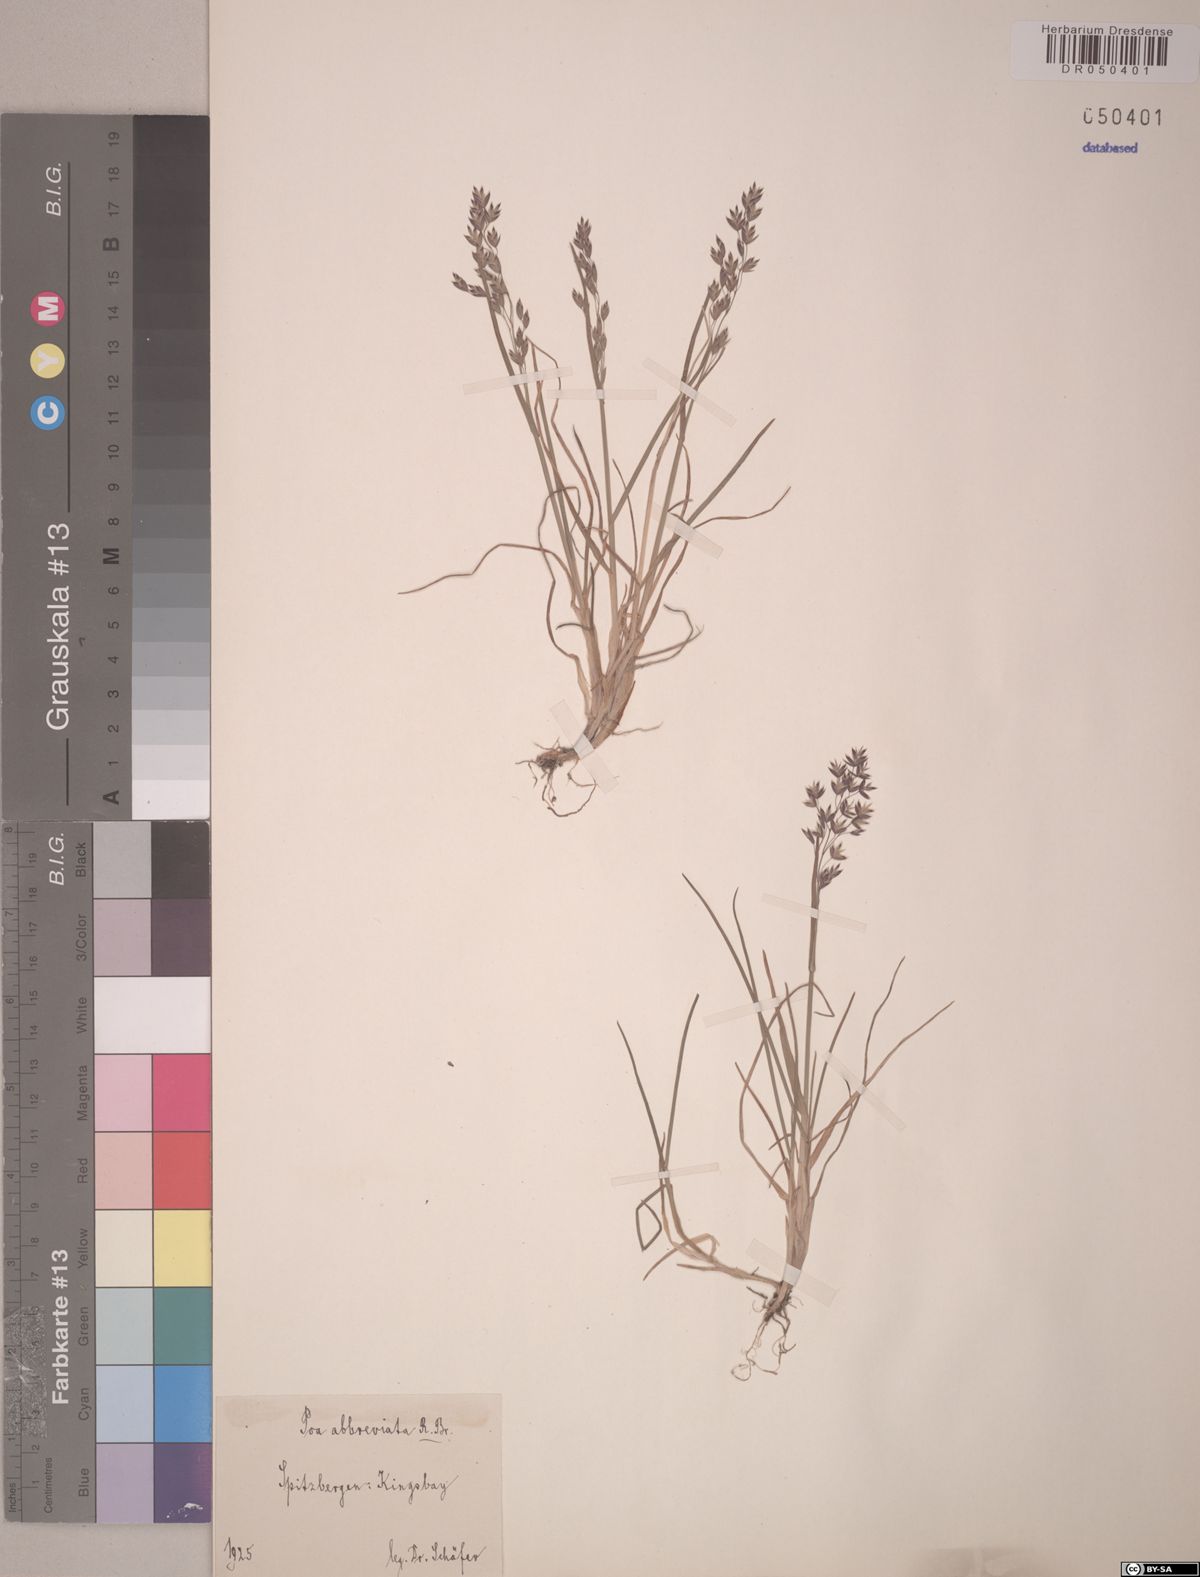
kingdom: Plantae
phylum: Tracheophyta
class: Liliopsida
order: Poales
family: Poaceae
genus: Poa
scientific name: Poa abbreviata
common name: Abbreviated bluegrass
